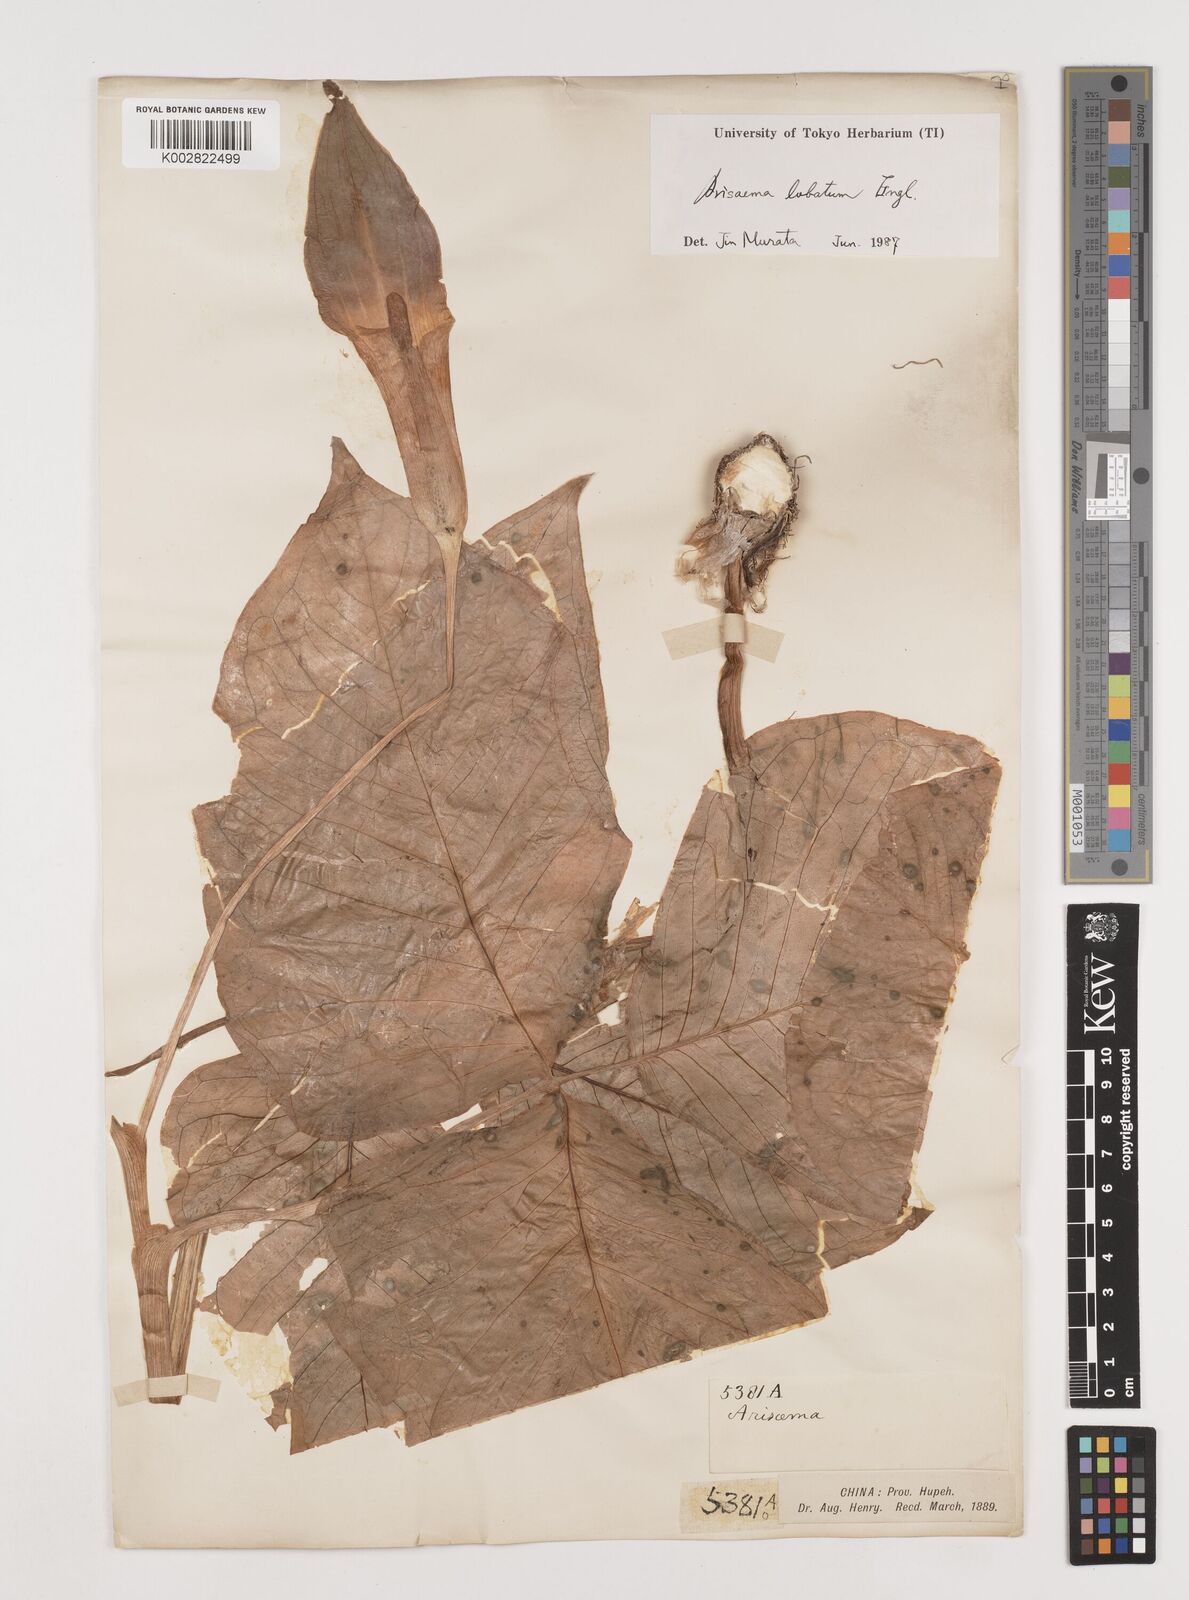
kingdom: Plantae
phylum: Tracheophyta
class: Liliopsida
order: Alismatales
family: Araceae
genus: Arisaema
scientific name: Arisaema lobatum
